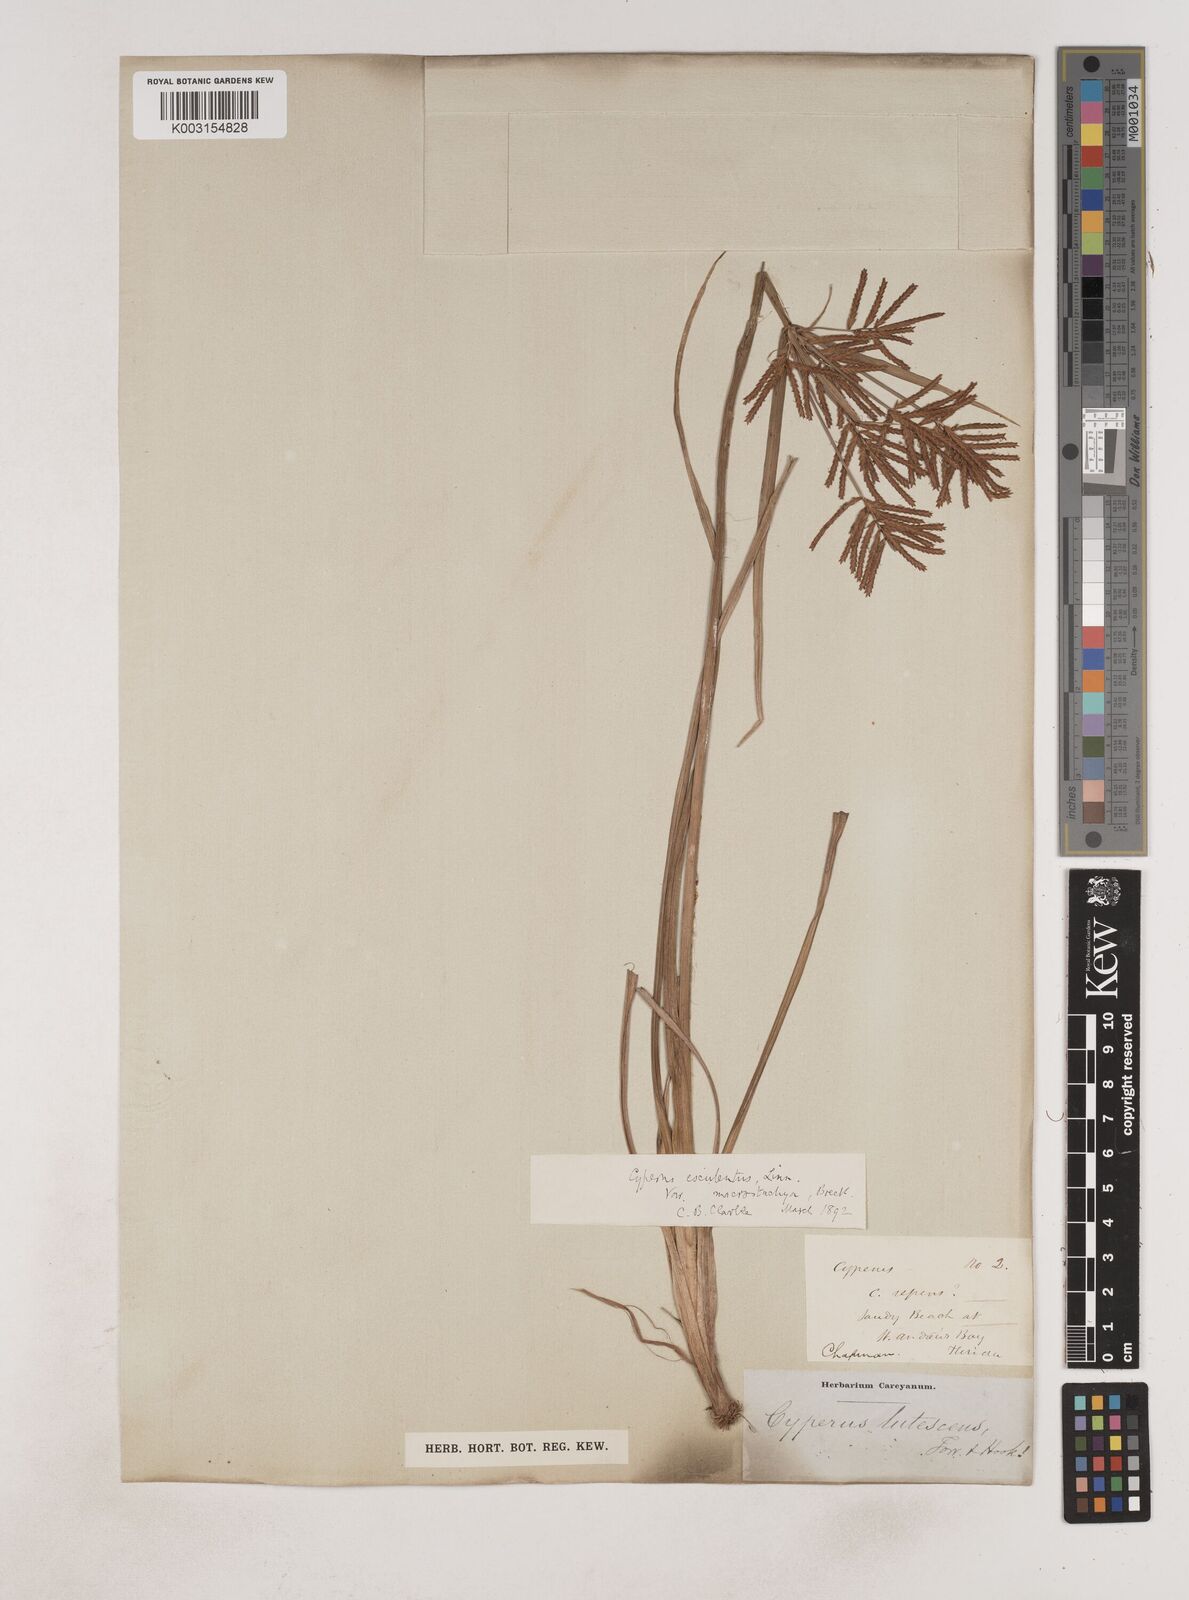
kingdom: Plantae
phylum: Tracheophyta
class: Liliopsida
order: Poales
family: Cyperaceae
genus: Cyperus
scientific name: Cyperus esculentus
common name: Yellow nutsedge
